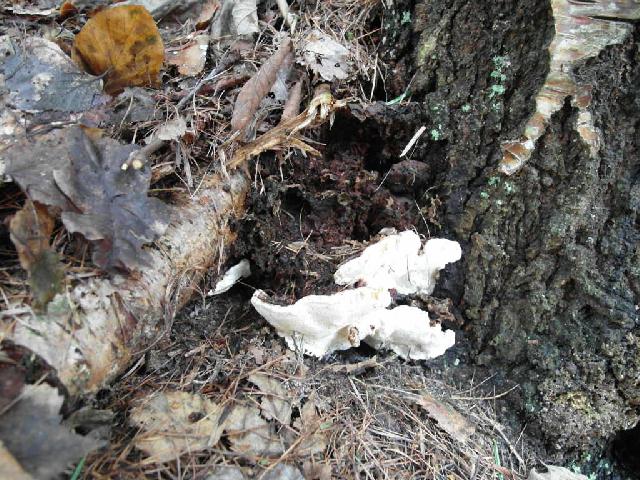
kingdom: Fungi
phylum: Basidiomycota
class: Agaricomycetes
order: Russulales
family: Bondarzewiaceae
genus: Heterobasidion
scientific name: Heterobasidion annosum
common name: almindelig rodfordærver
